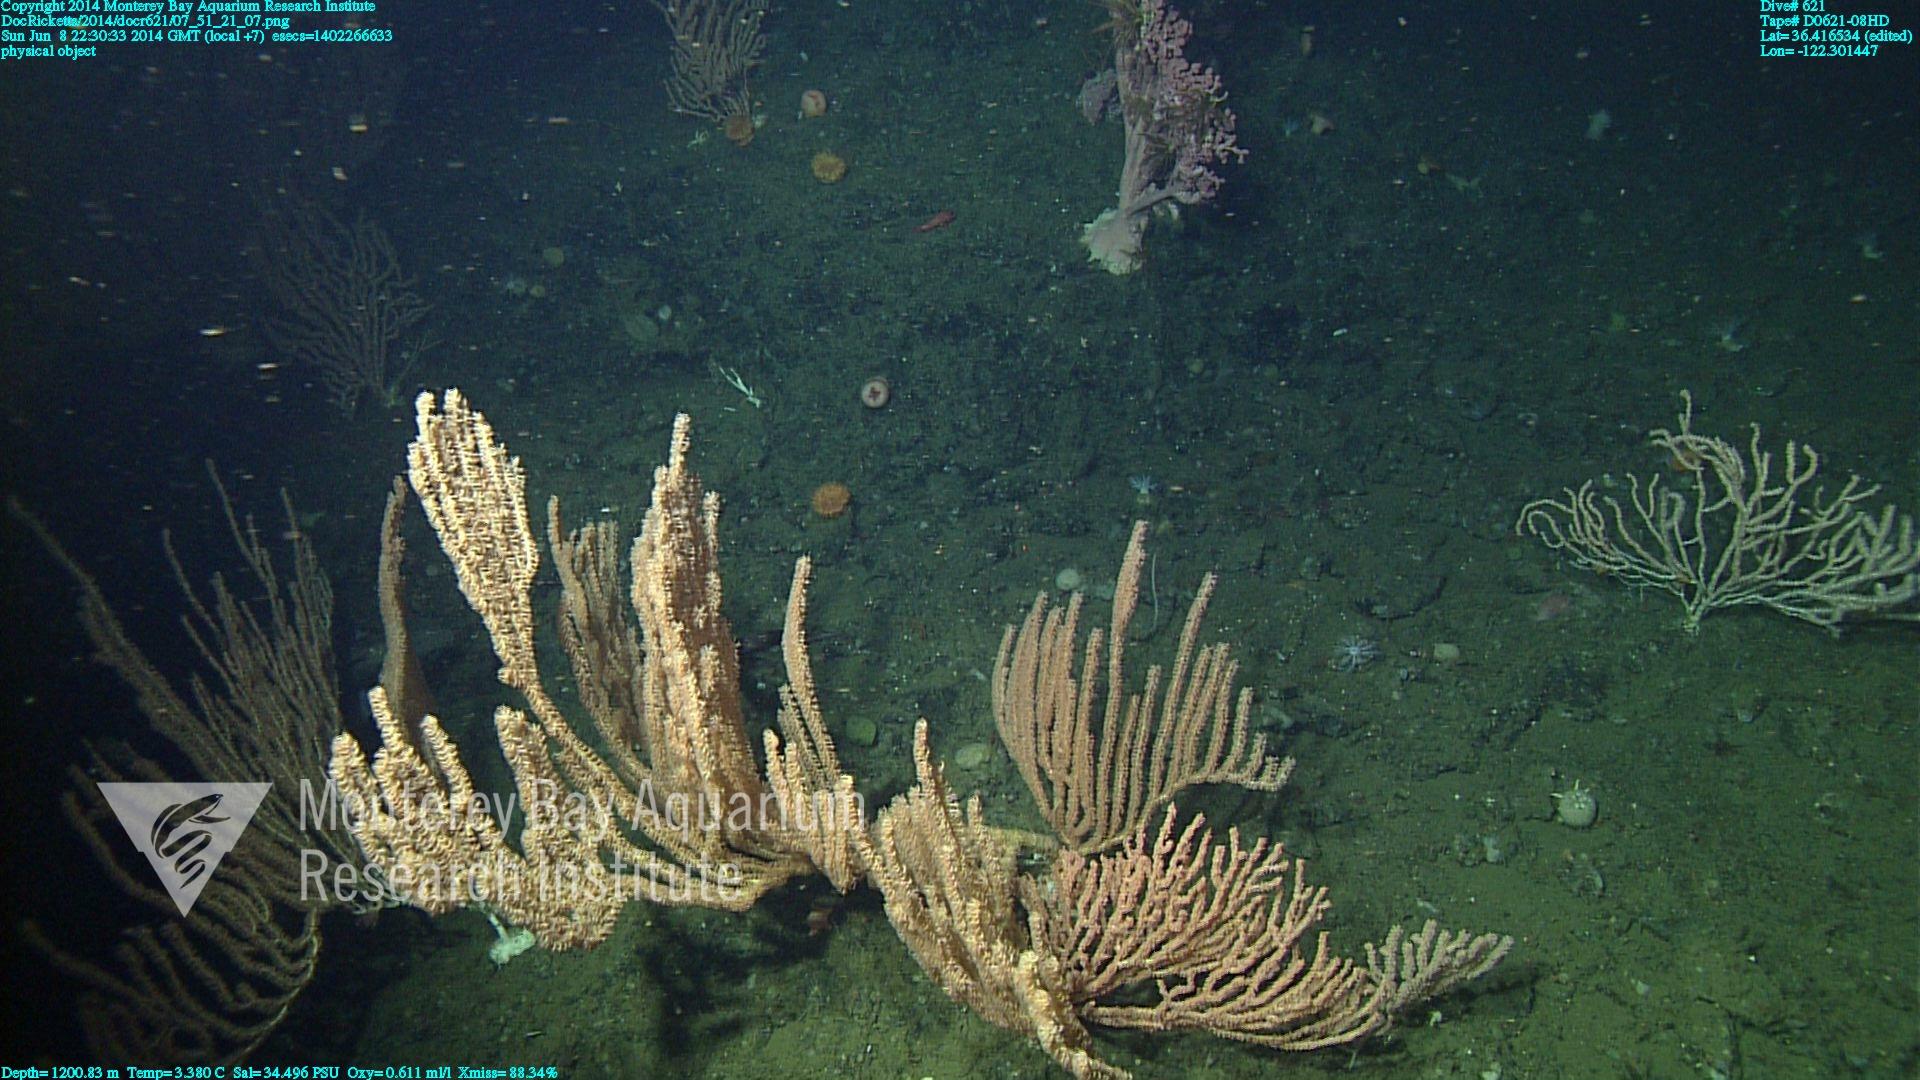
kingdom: Animalia
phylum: Cnidaria
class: Anthozoa
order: Scleralcyonacea
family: Keratoisididae
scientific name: Keratoisididae
